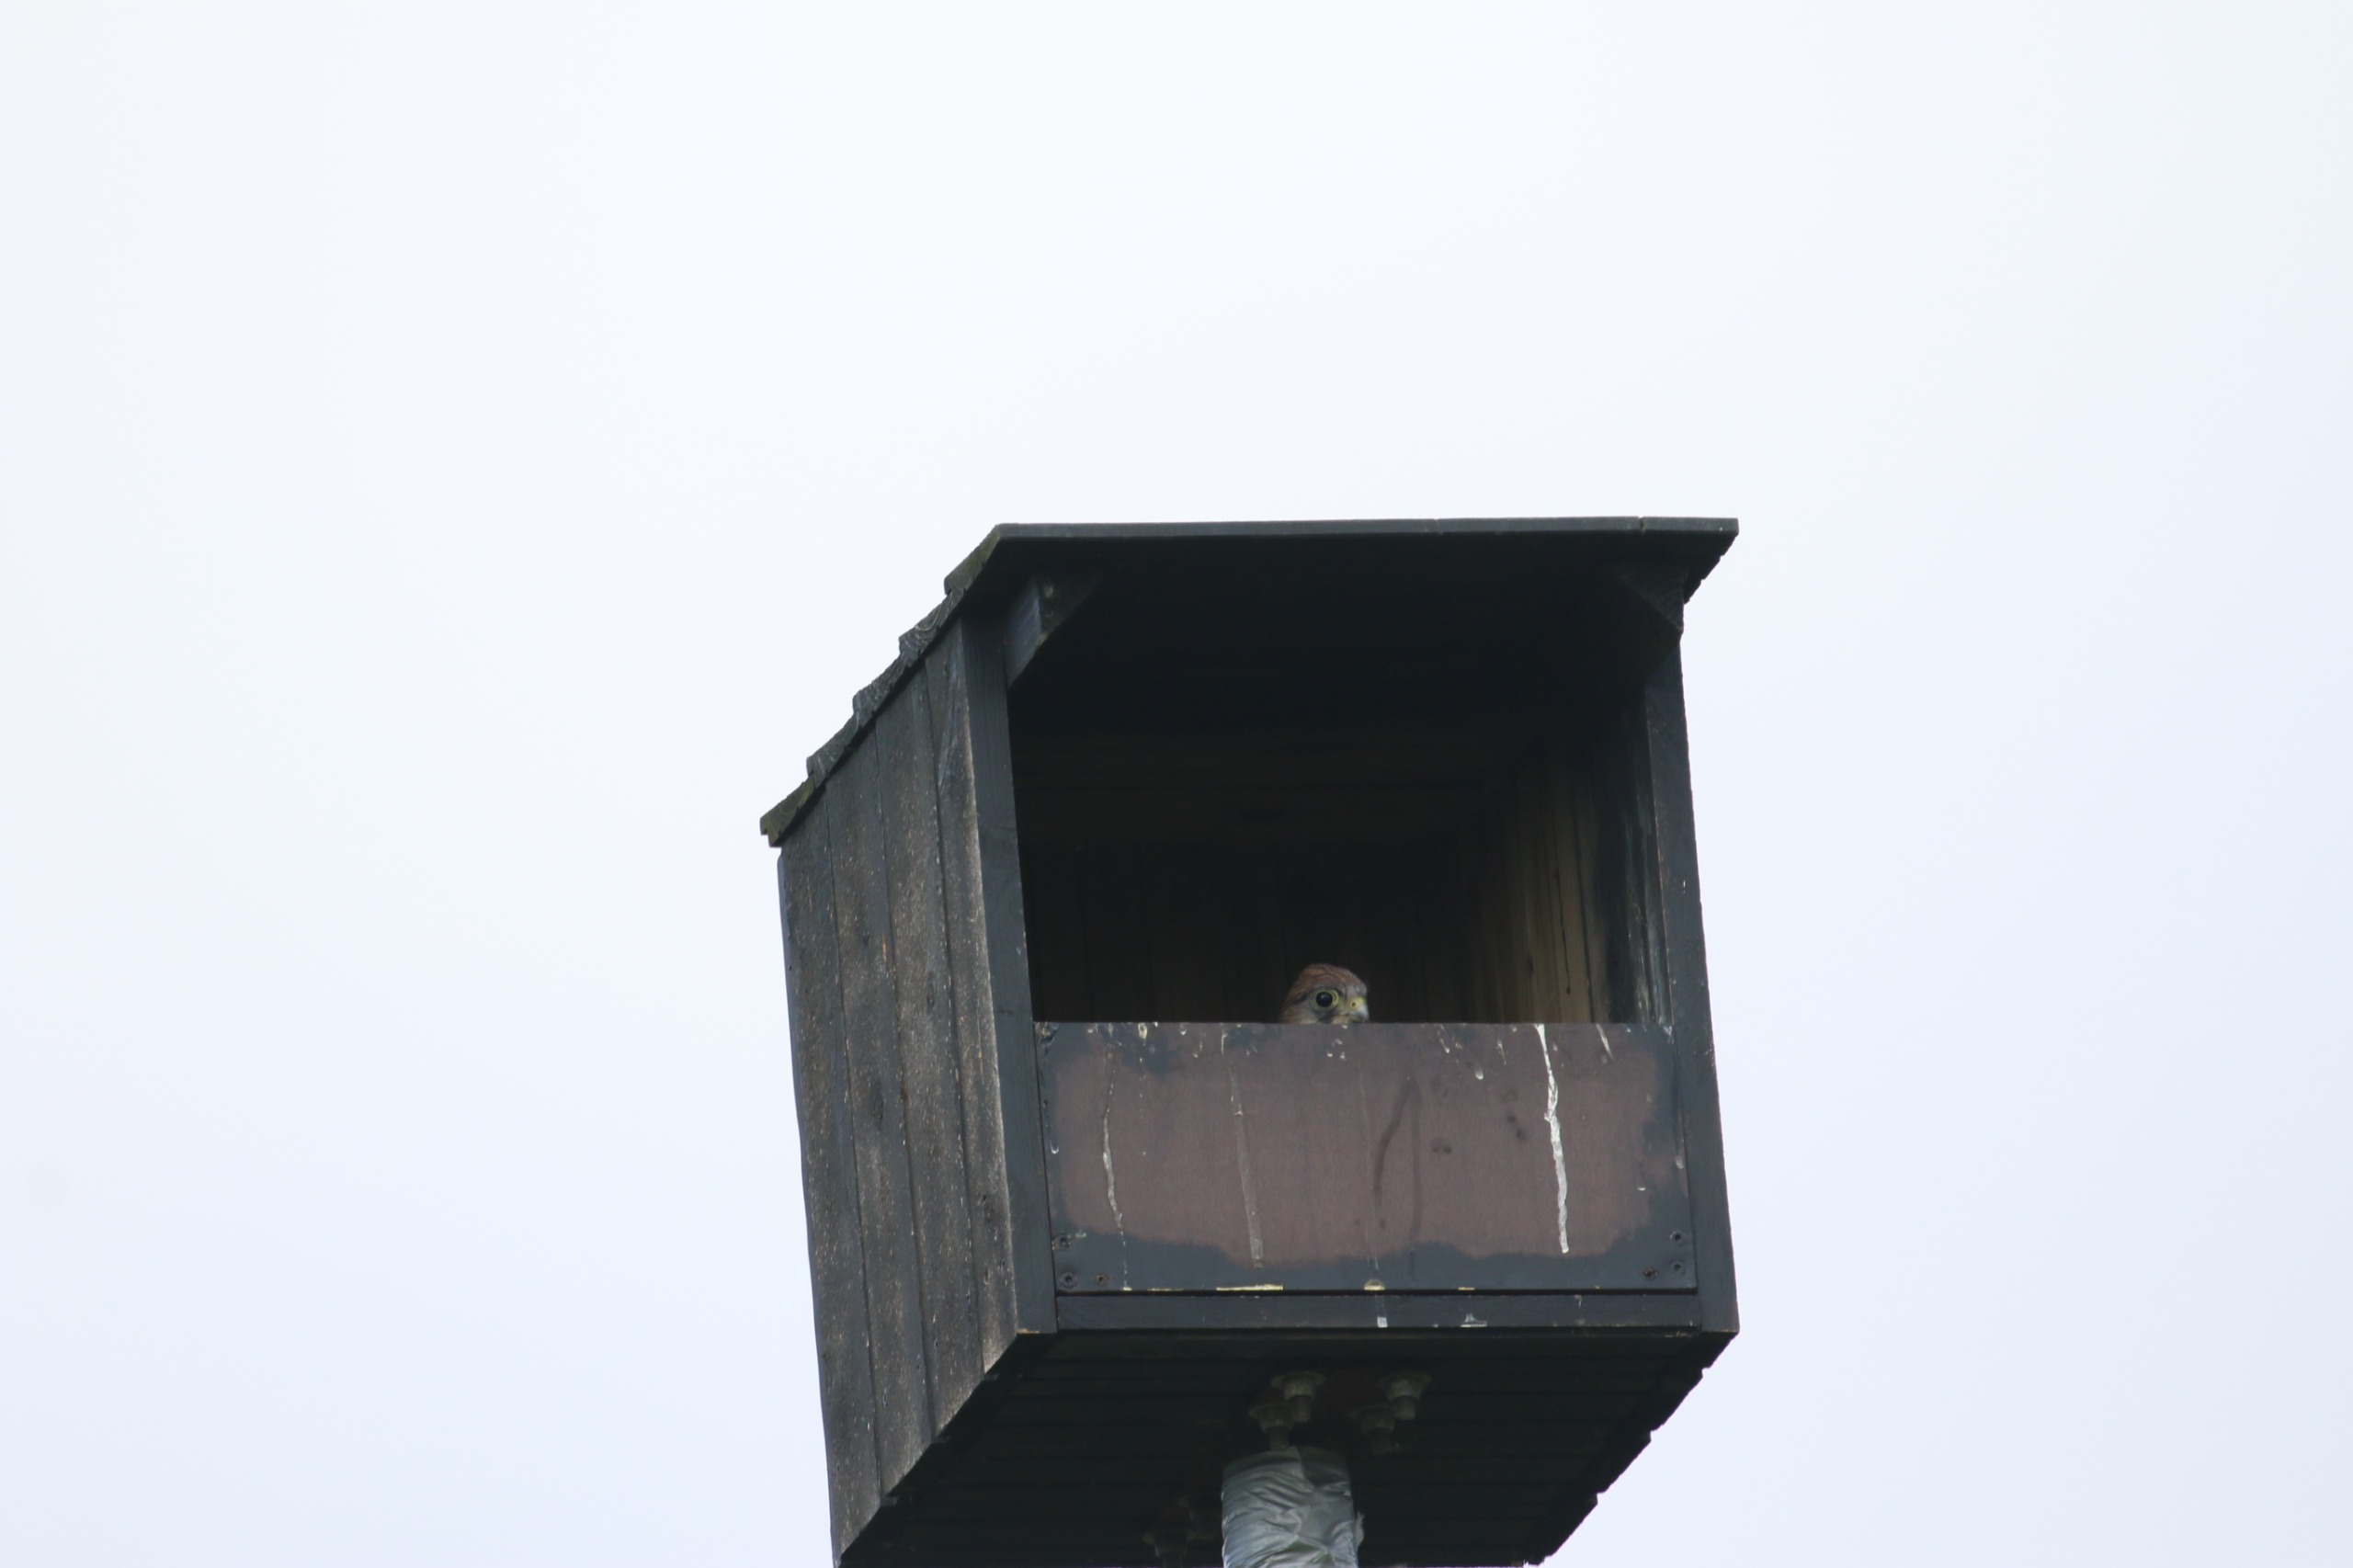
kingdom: Animalia
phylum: Chordata
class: Aves
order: Falconiformes
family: Falconidae
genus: Falco
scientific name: Falco tinnunculus
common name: Tårnfalk
